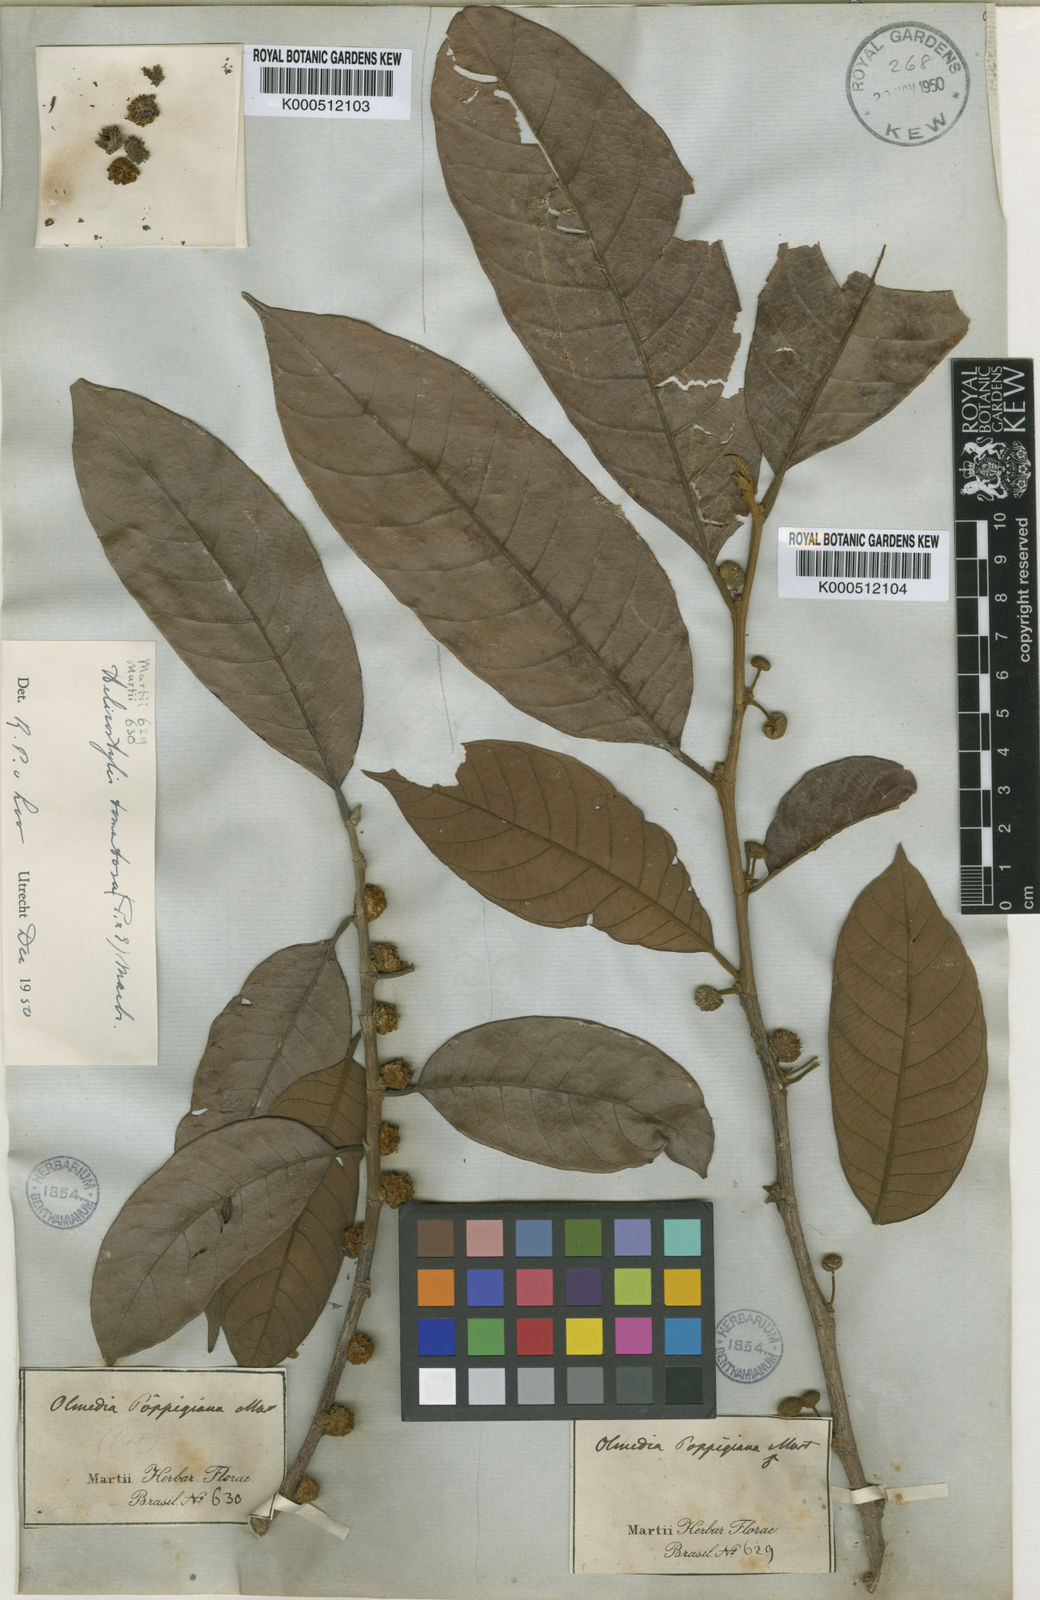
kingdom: Plantae
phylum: Tracheophyta
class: Magnoliopsida
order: Rosales
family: Moraceae
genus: Helicostylis
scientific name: Helicostylis tomentosa
